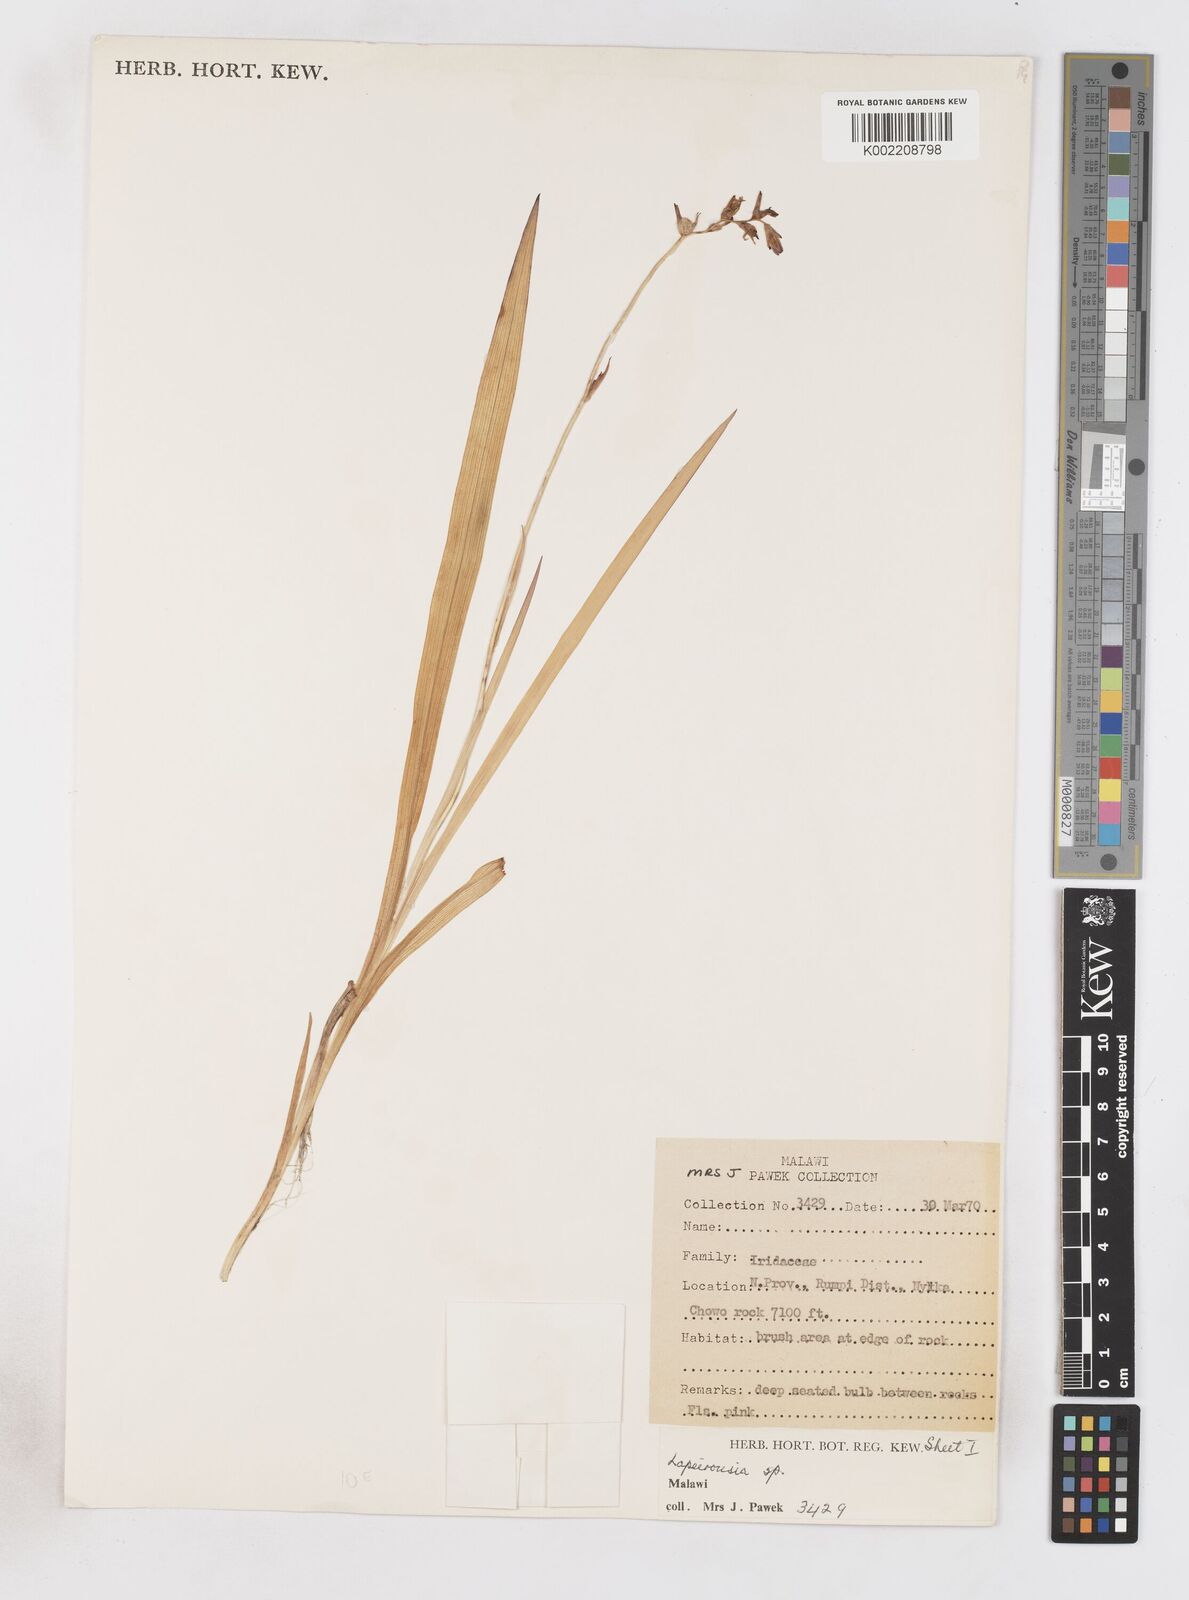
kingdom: Plantae
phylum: Tracheophyta
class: Liliopsida
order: Asparagales
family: Iridaceae
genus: Freesia
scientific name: Freesia laxa
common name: False freesia
